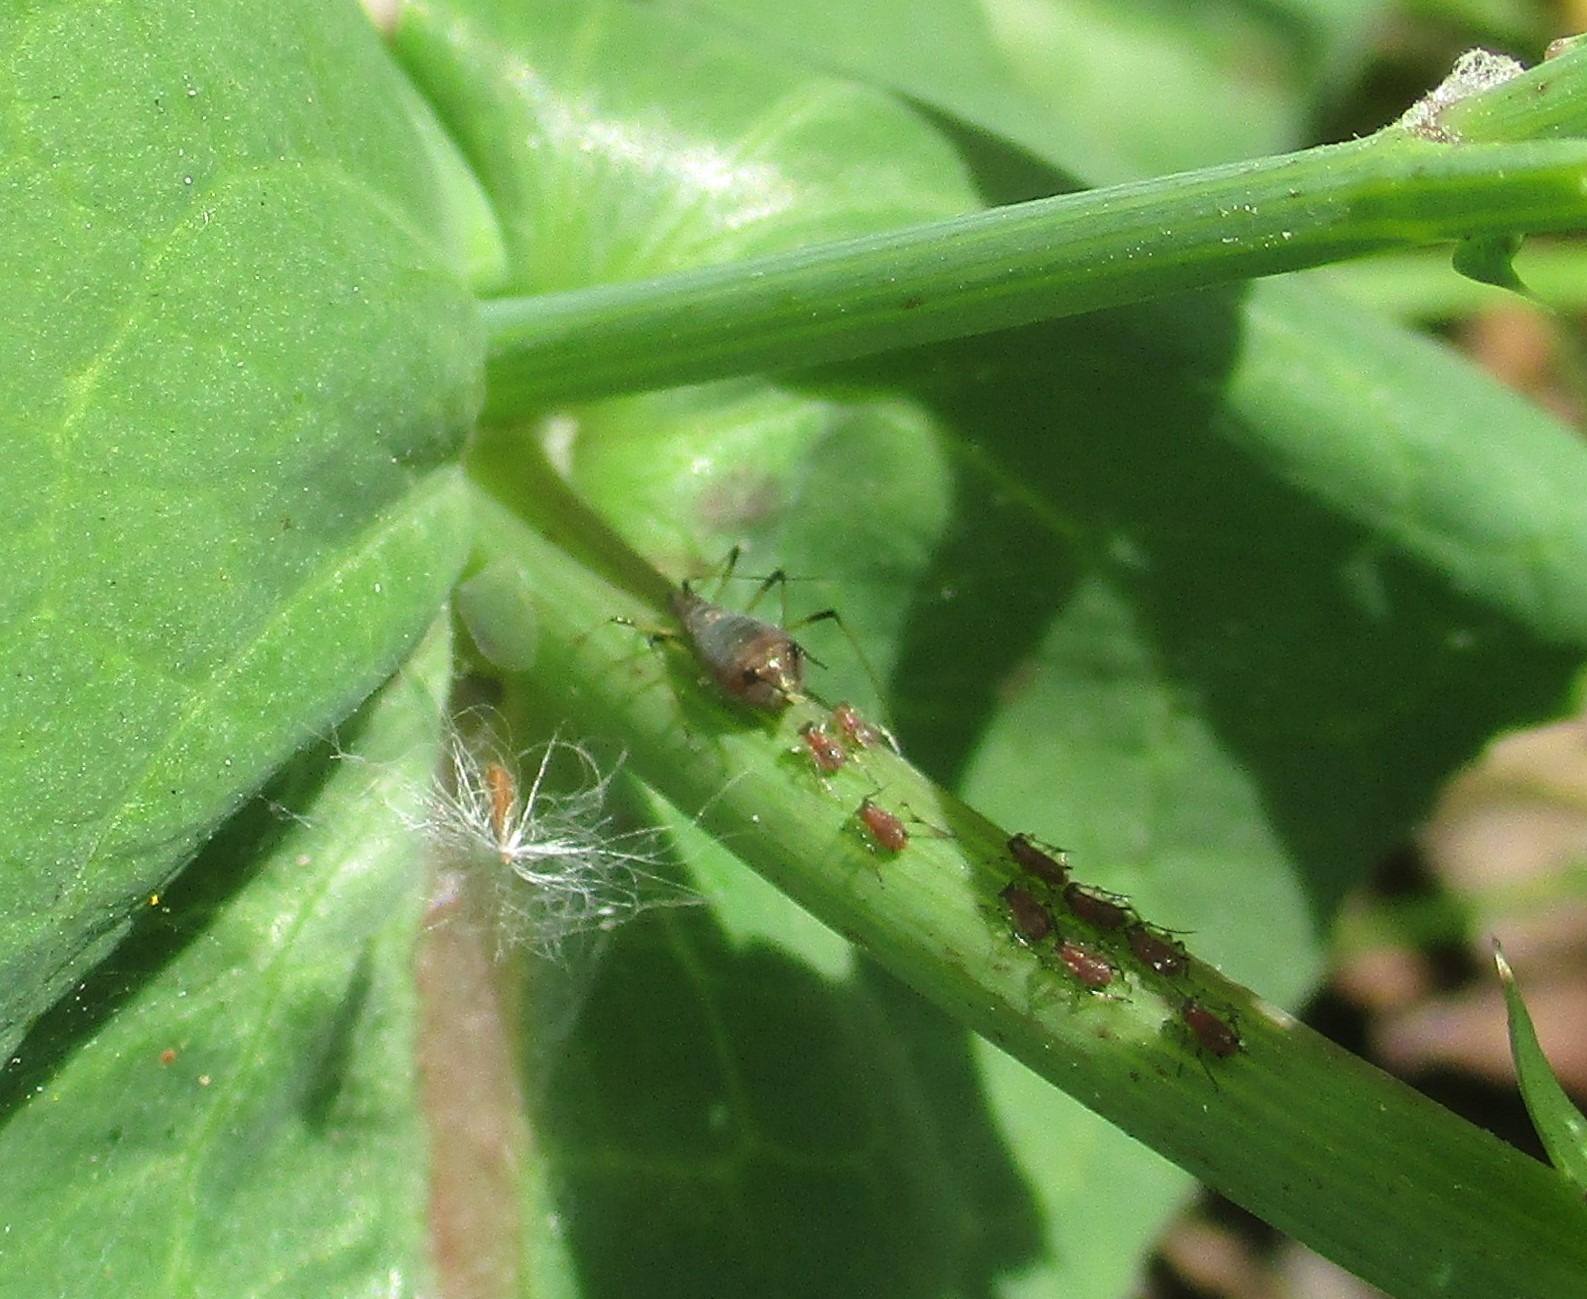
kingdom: Animalia
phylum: Arthropoda
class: Insecta
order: Hemiptera
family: Aphididae
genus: Uroleucon
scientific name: Uroleucon sonchi
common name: Brun svinemælkbladlus
